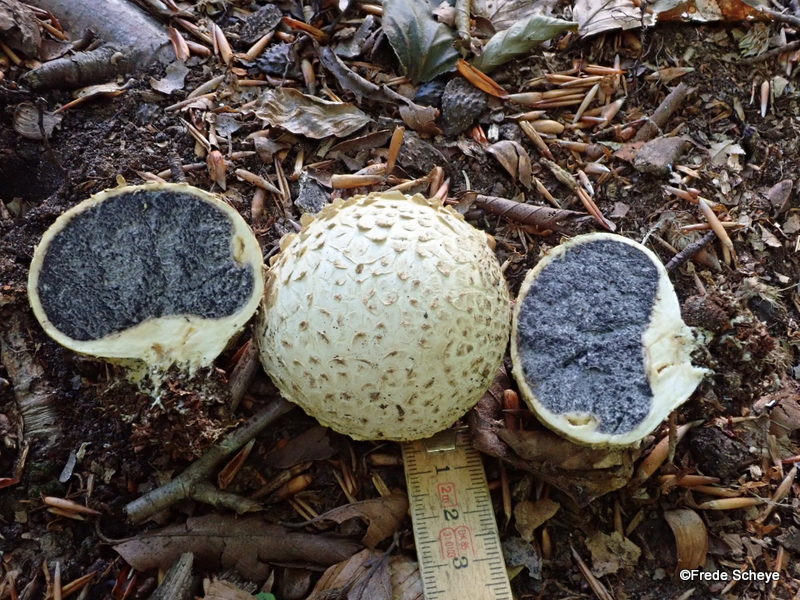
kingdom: Fungi
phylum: Basidiomycota
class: Agaricomycetes
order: Boletales
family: Sclerodermataceae
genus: Scleroderma
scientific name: Scleroderma citrinum
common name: almindelig bruskbold
